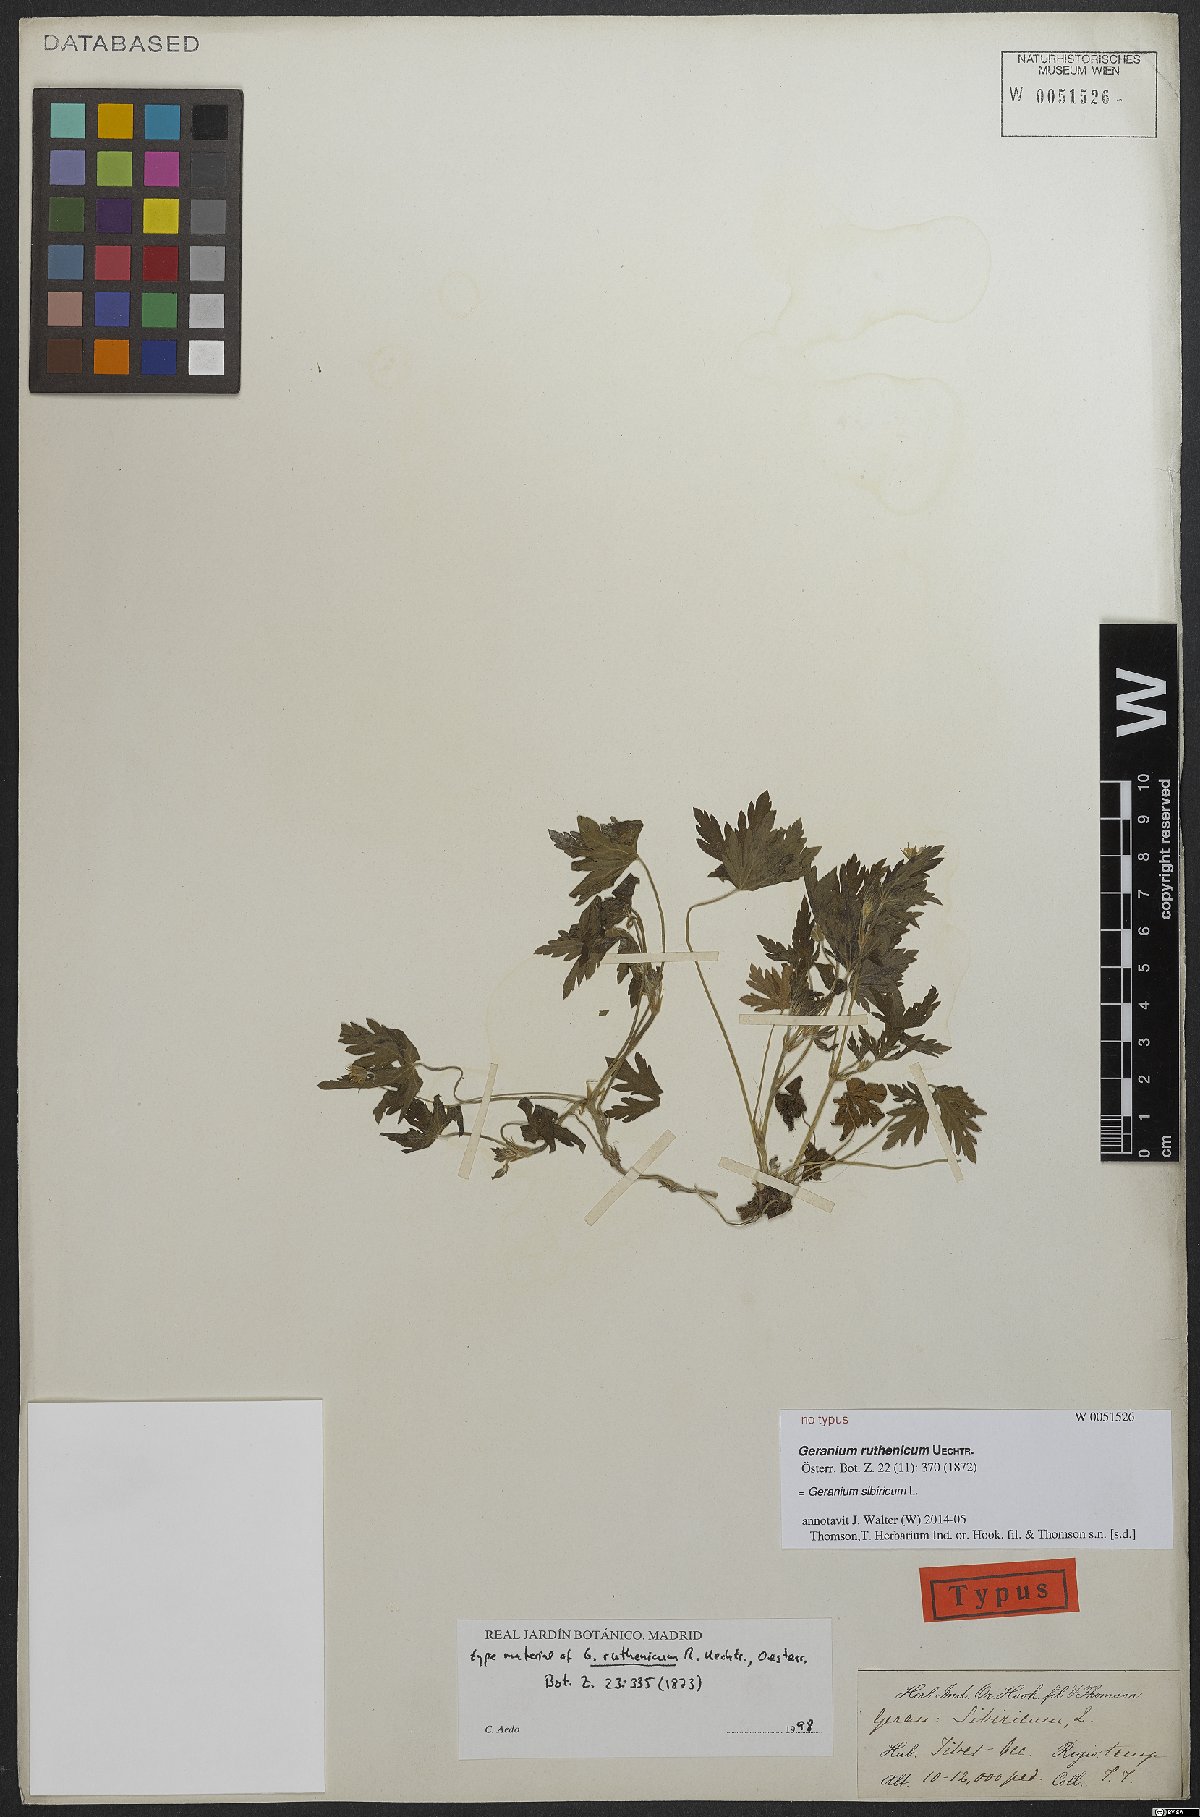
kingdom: Plantae
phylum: Tracheophyta
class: Magnoliopsida
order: Geraniales
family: Geraniaceae
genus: Geranium
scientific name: Geranium sibiricum
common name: Siberian crane's-bill
